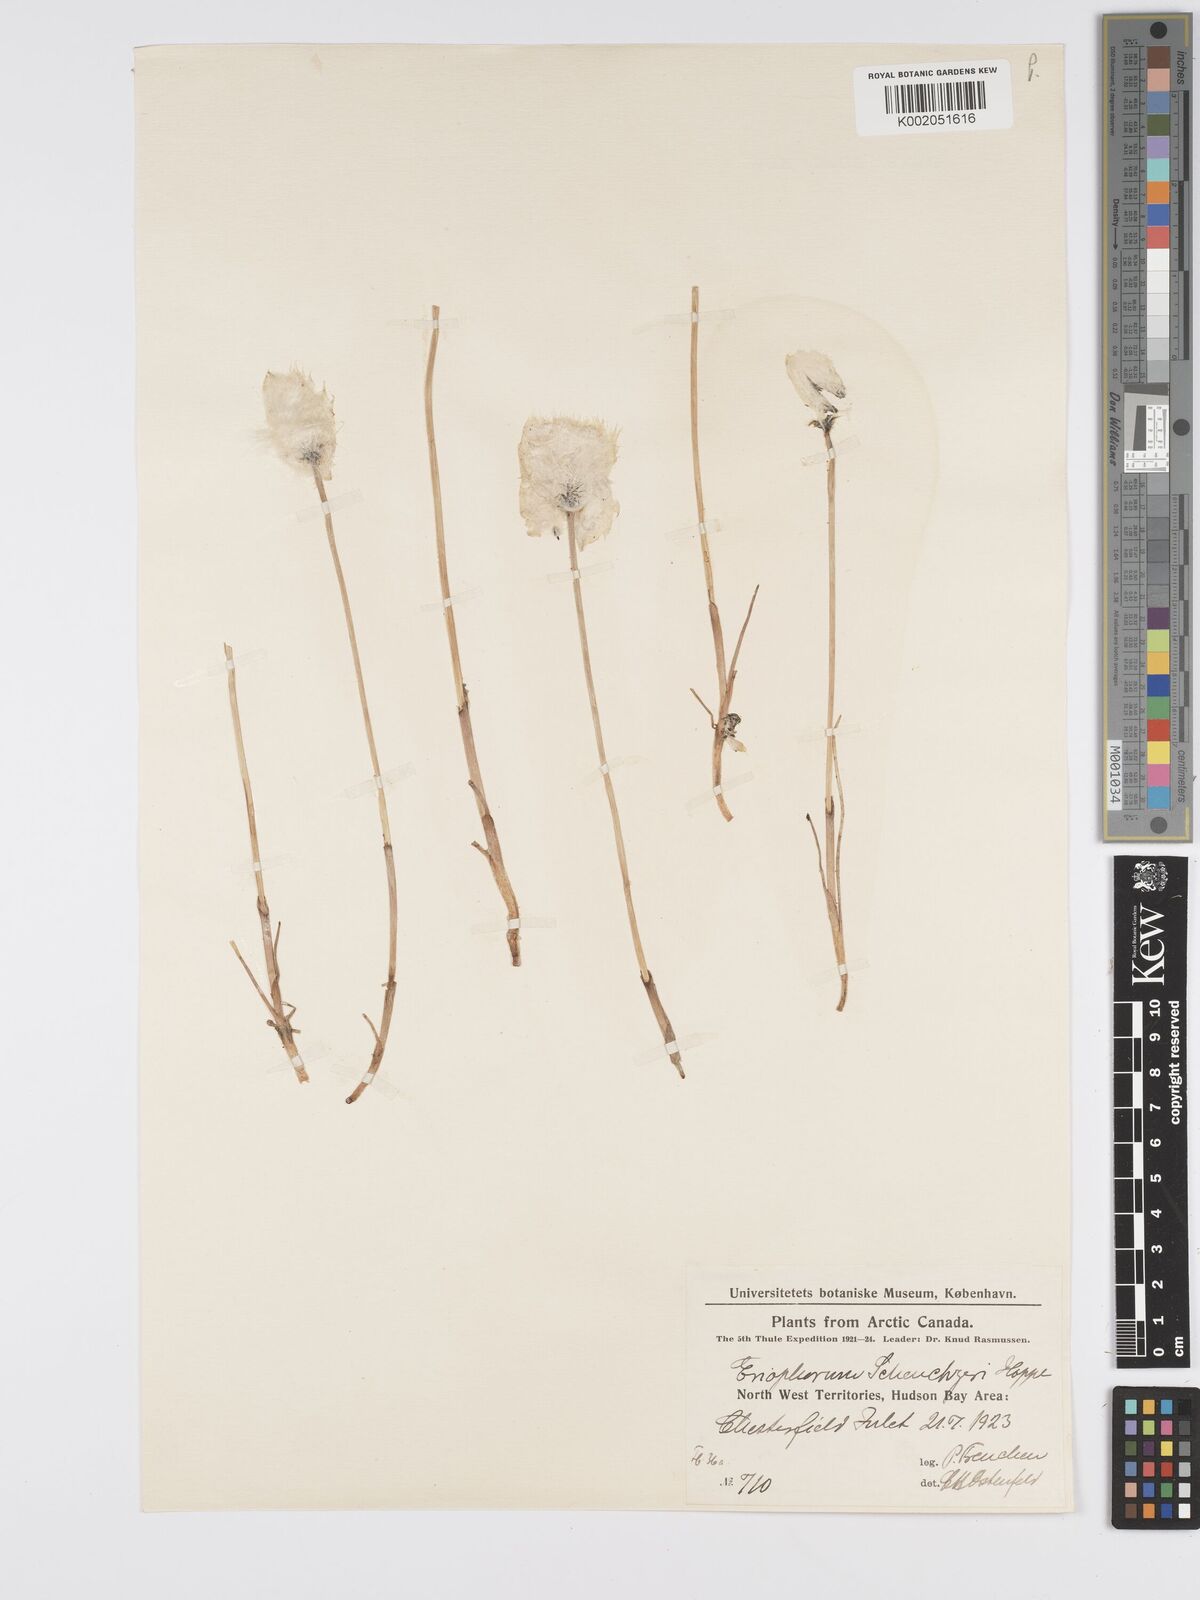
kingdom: Plantae
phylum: Tracheophyta
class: Liliopsida
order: Poales
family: Cyperaceae
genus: Eriophorum
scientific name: Eriophorum scheuchzeri
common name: Scheuchzer's cottongrass
